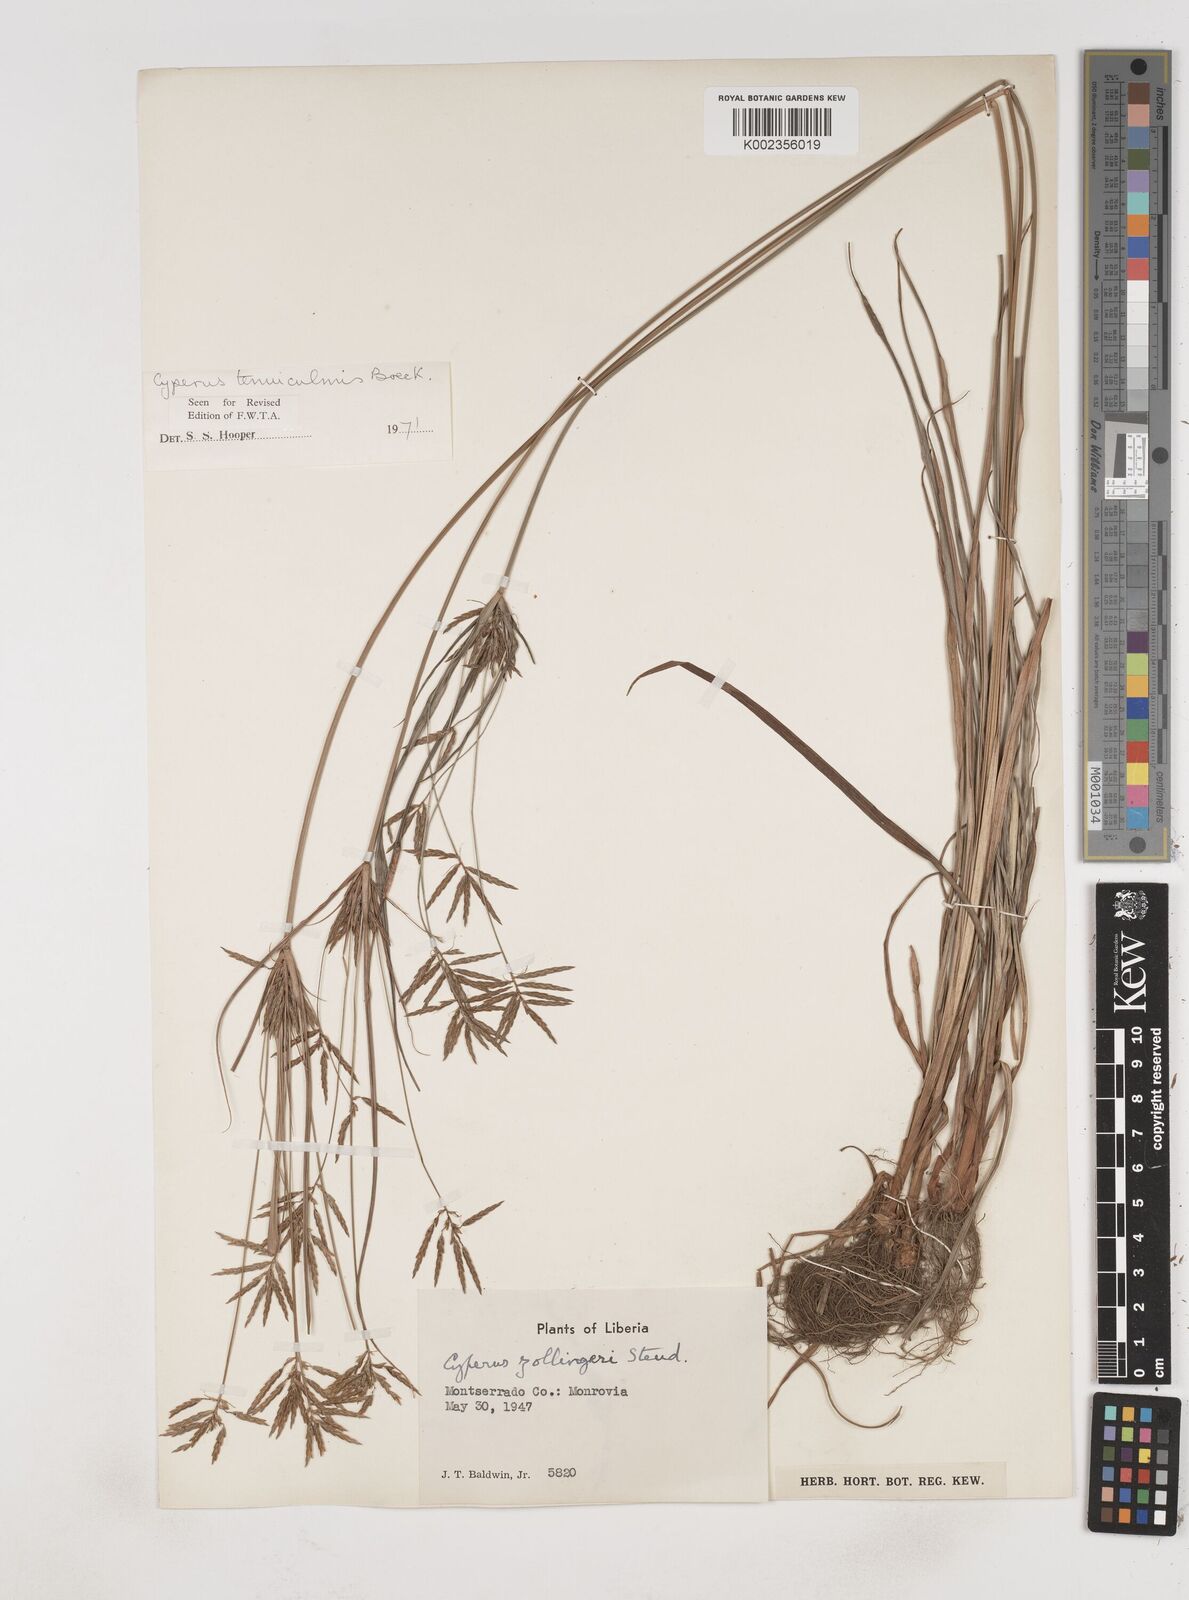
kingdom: Plantae
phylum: Tracheophyta
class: Liliopsida
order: Poales
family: Cyperaceae
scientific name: Cyperaceae
